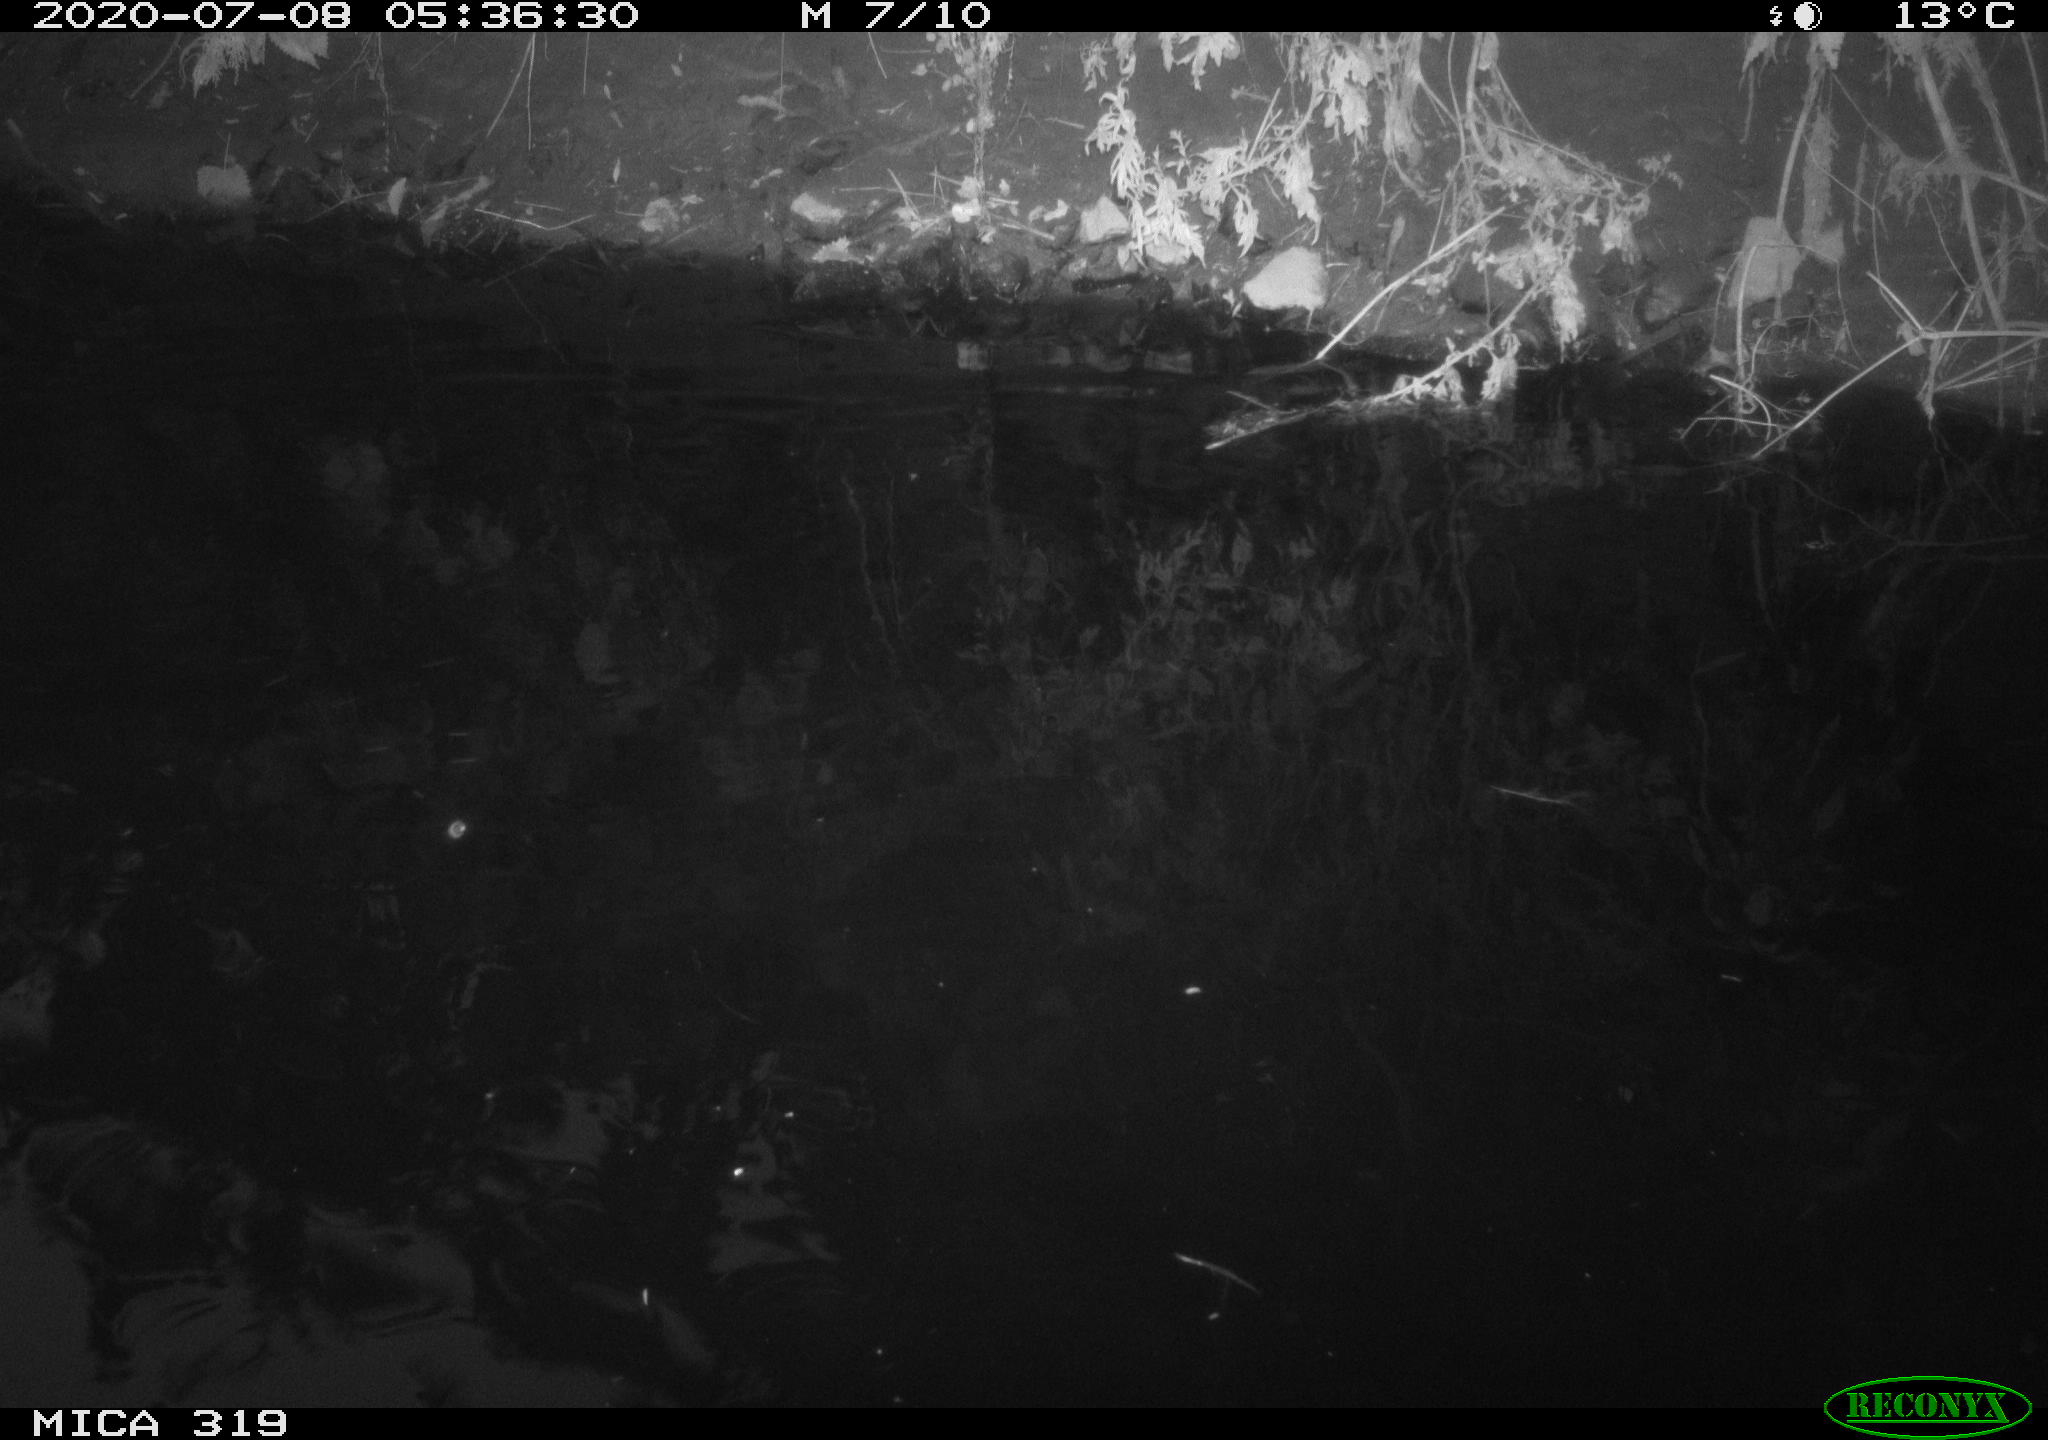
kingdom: Animalia
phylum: Chordata
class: Aves
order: Anseriformes
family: Anatidae
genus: Anas
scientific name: Anas platyrhynchos
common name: Mallard
